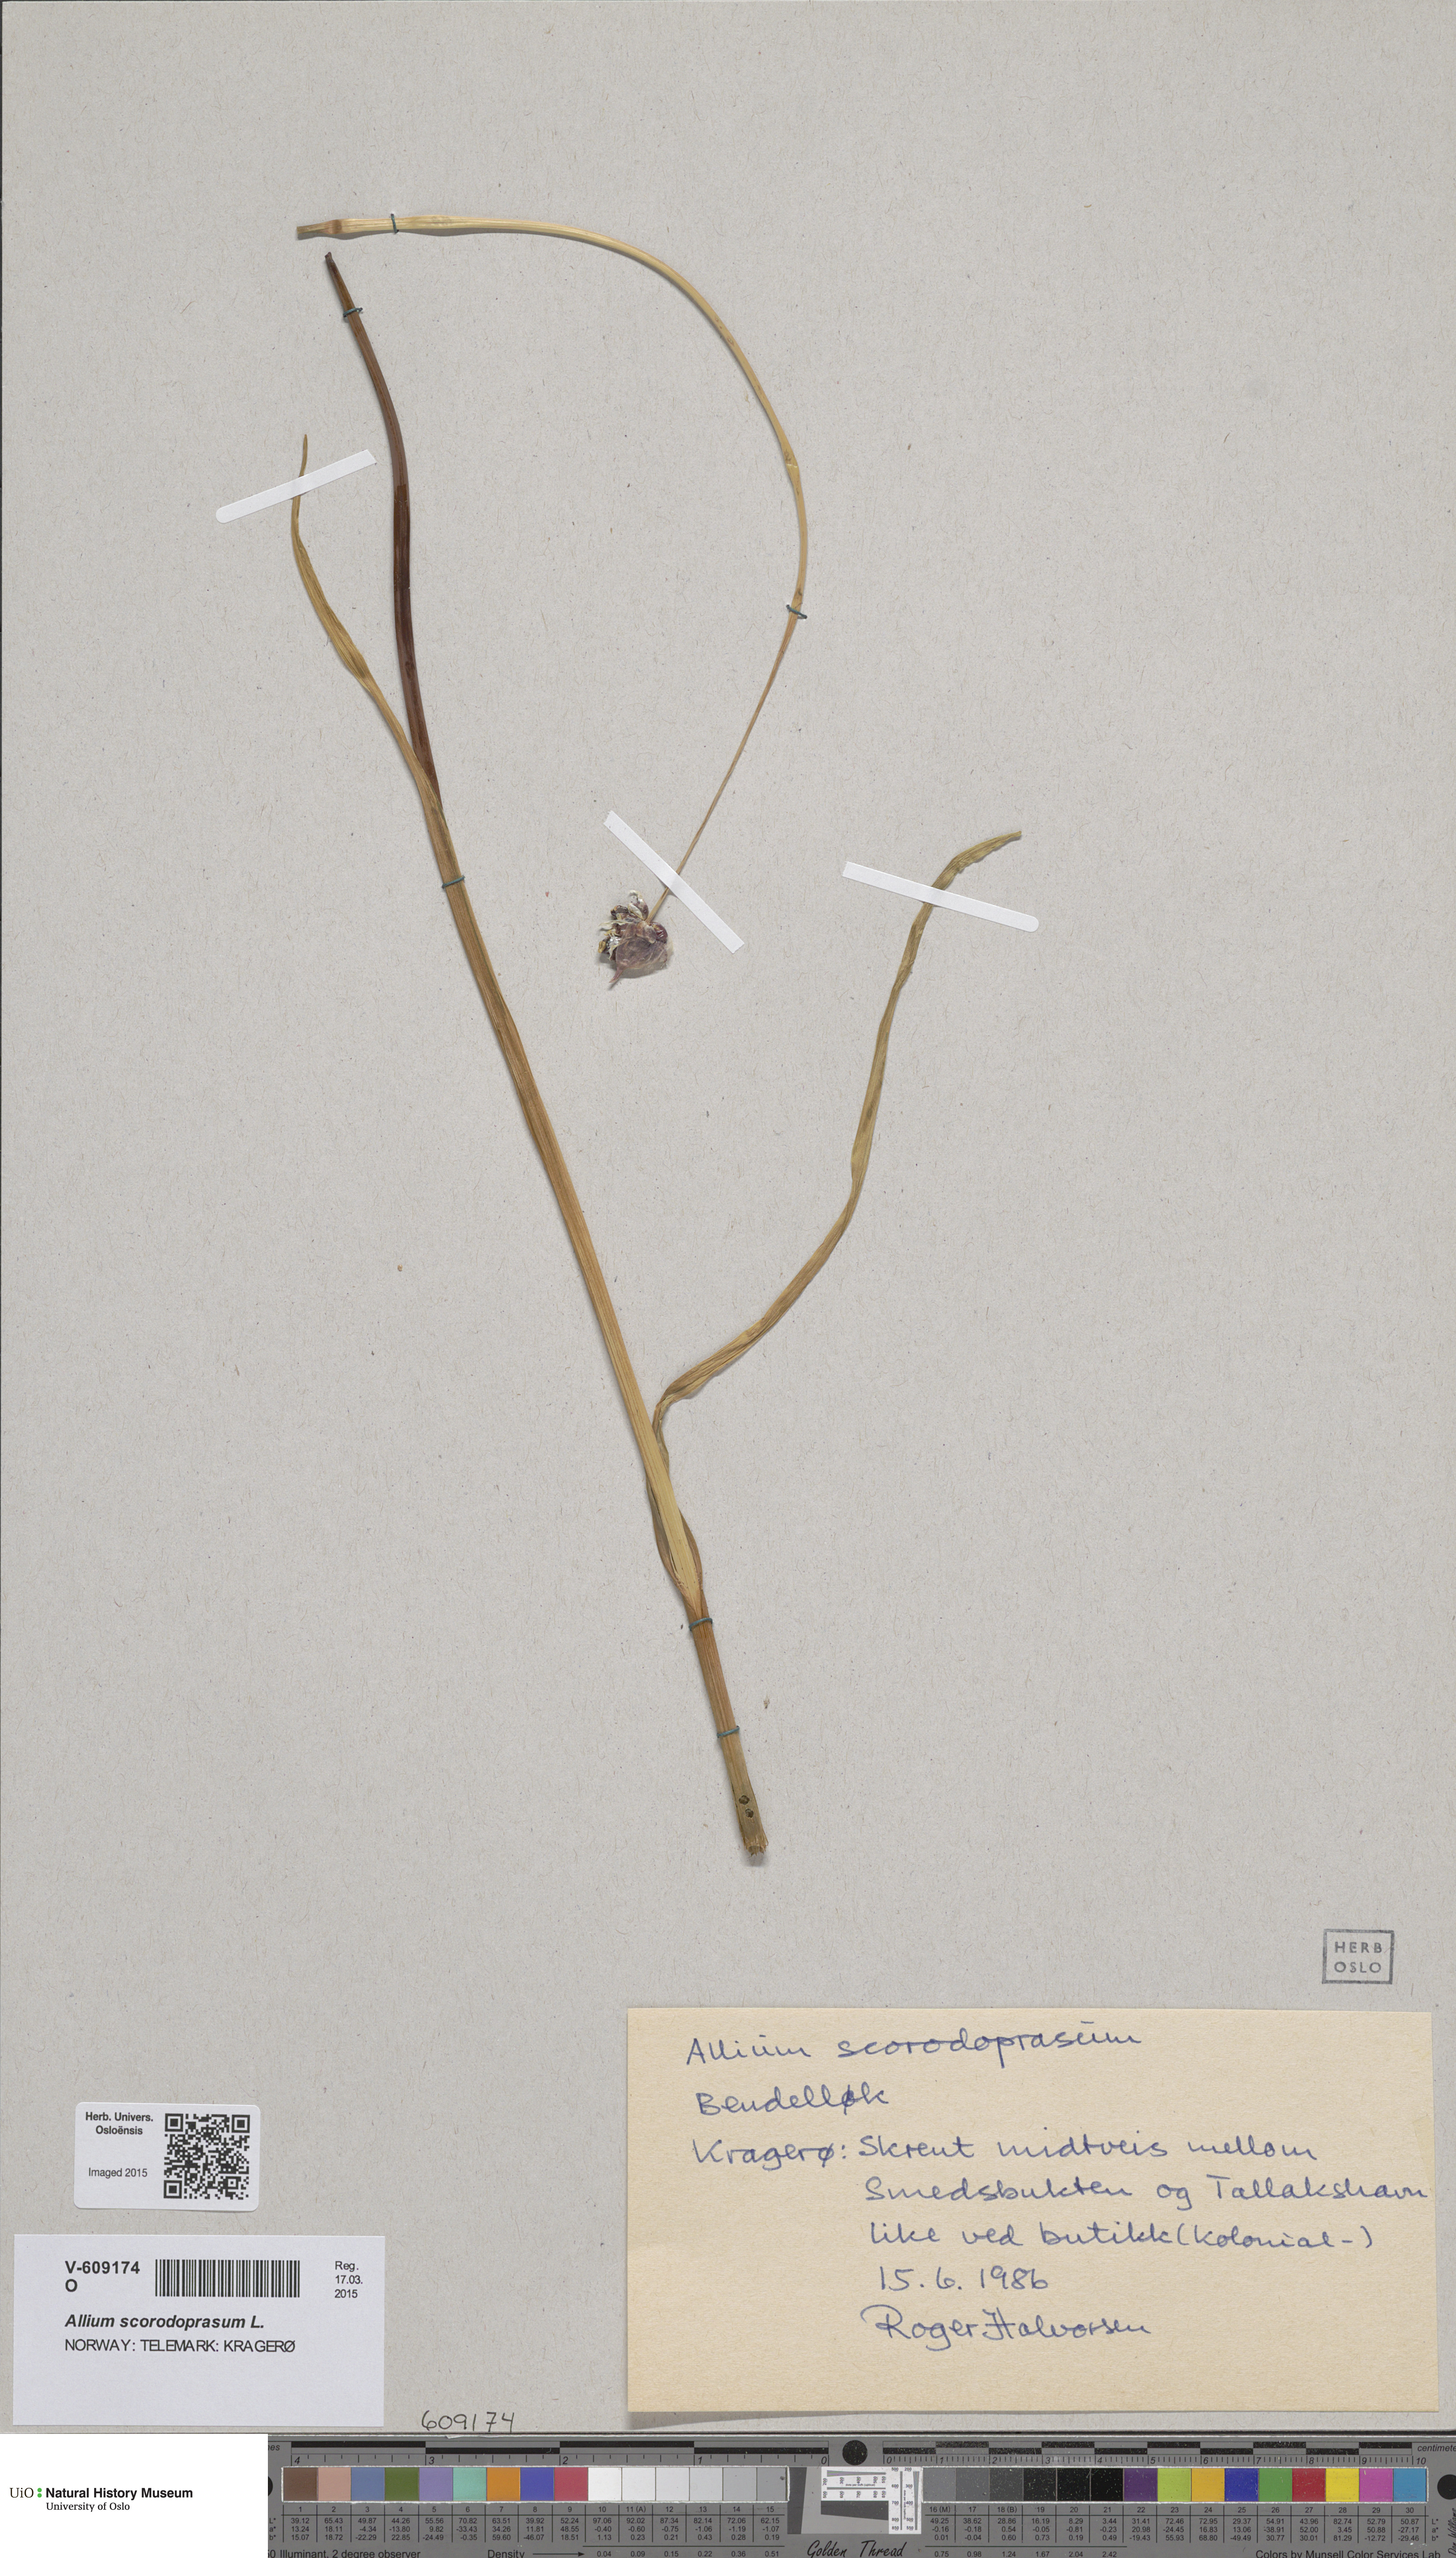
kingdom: Plantae
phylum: Tracheophyta
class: Liliopsida
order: Asparagales
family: Amaryllidaceae
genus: Allium
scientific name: Allium scorodoprasum
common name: Sand leek
